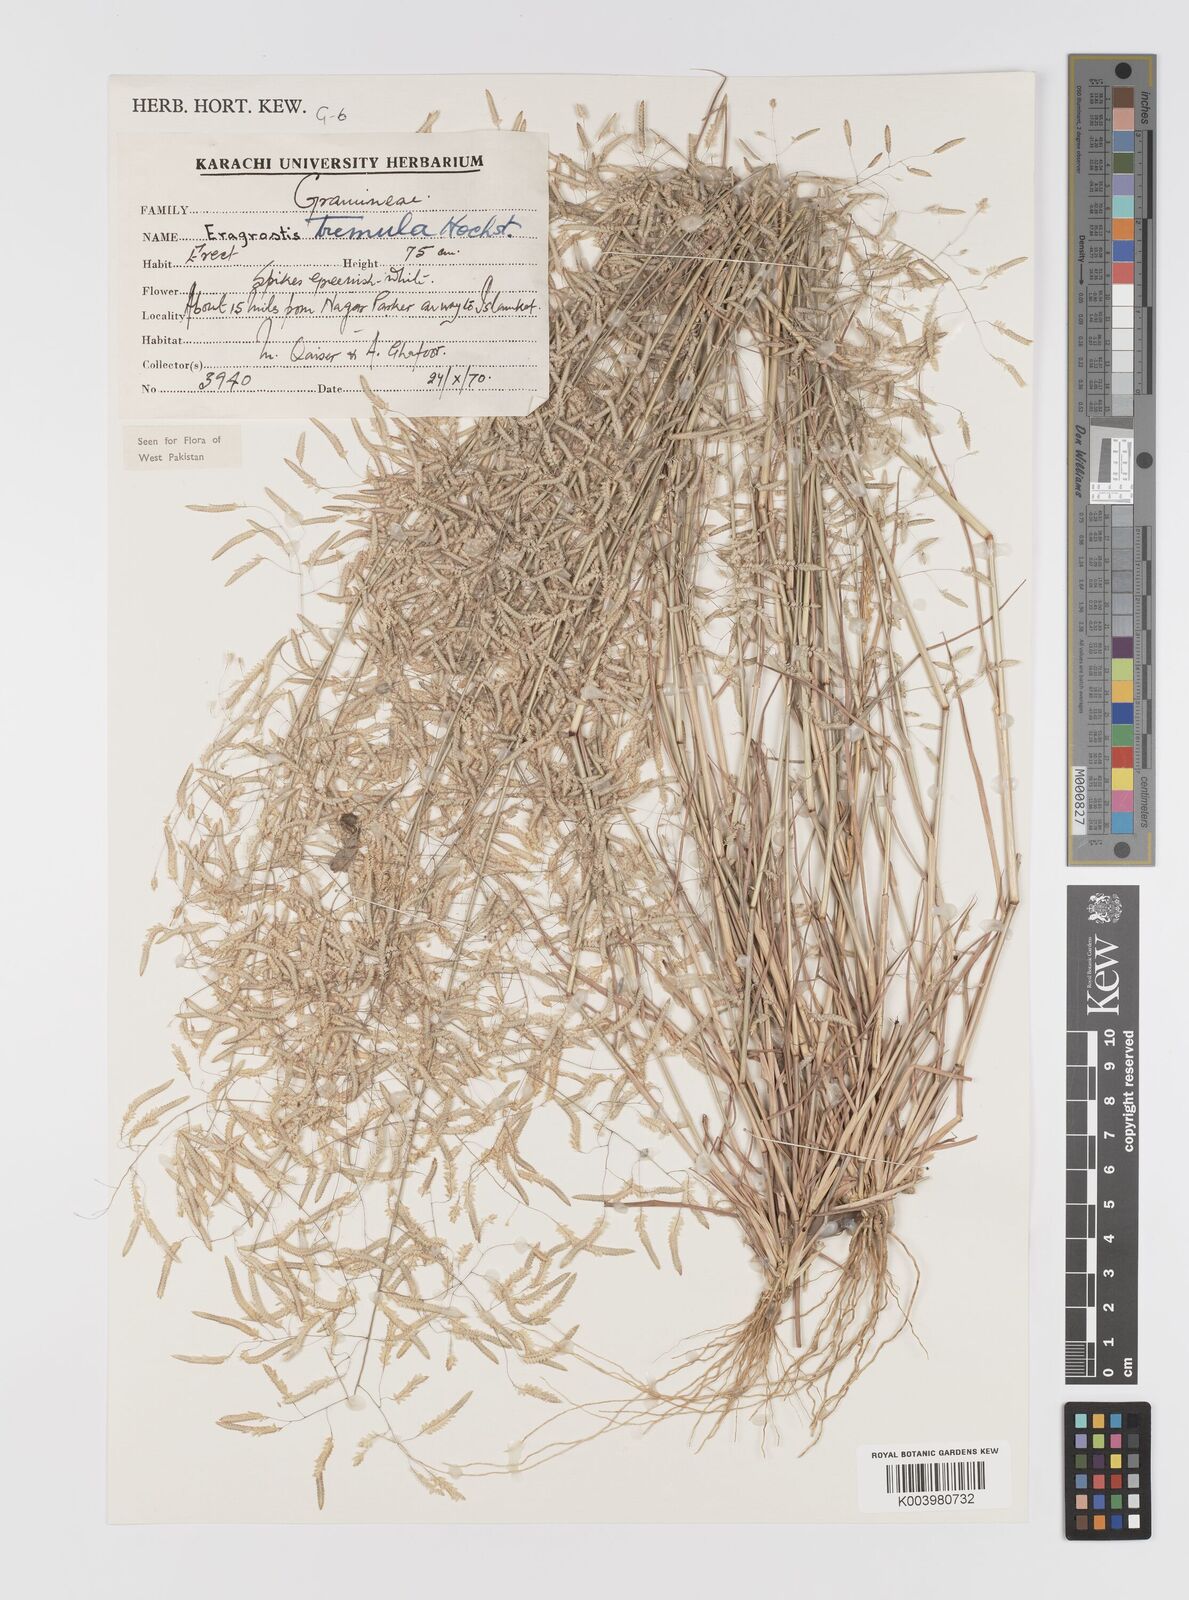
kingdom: Plantae
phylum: Tracheophyta
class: Liliopsida
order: Poales
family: Poaceae
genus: Eragrostis
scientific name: Eragrostis tremula
